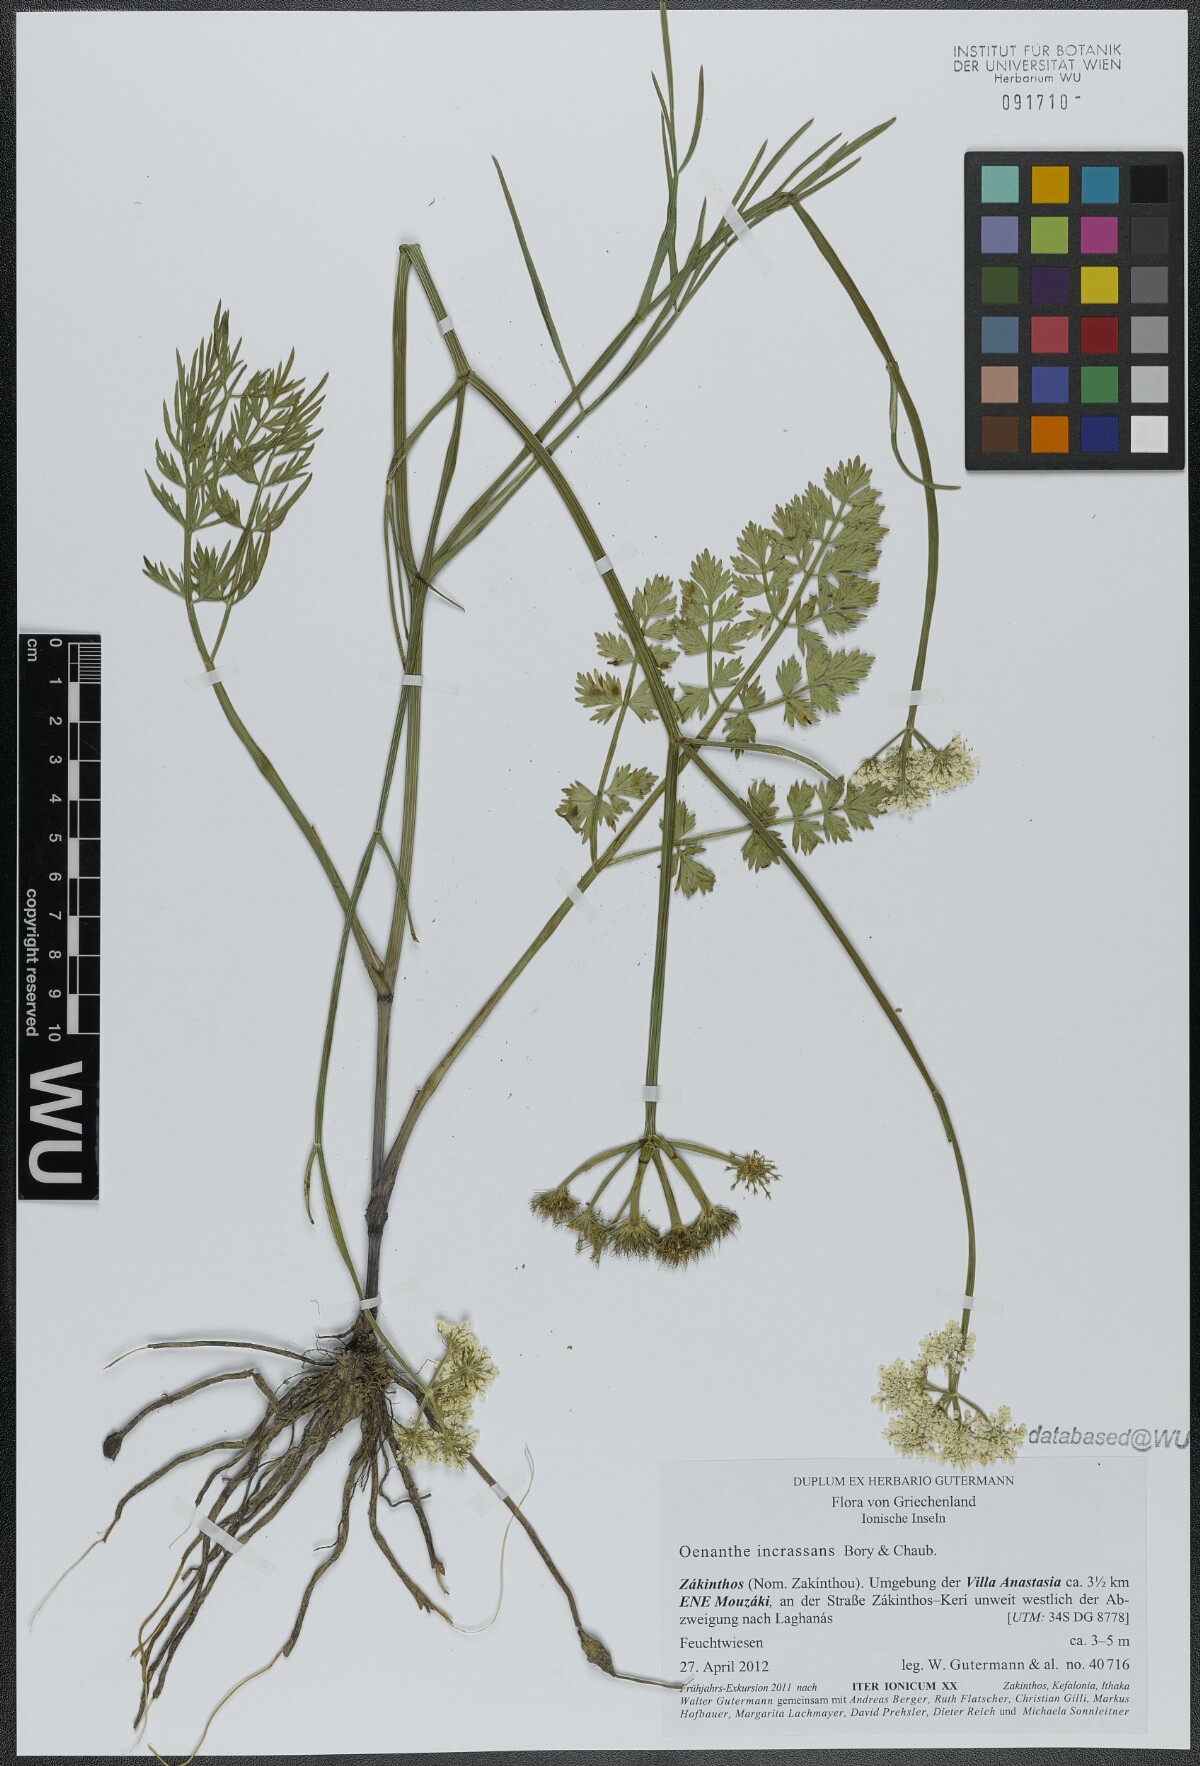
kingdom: Plantae
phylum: Tracheophyta
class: Magnoliopsida
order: Apiales
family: Apiaceae
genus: Oenanthe
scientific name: Oenanthe pimpinelloides
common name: Corky-fruited water-dropwort
